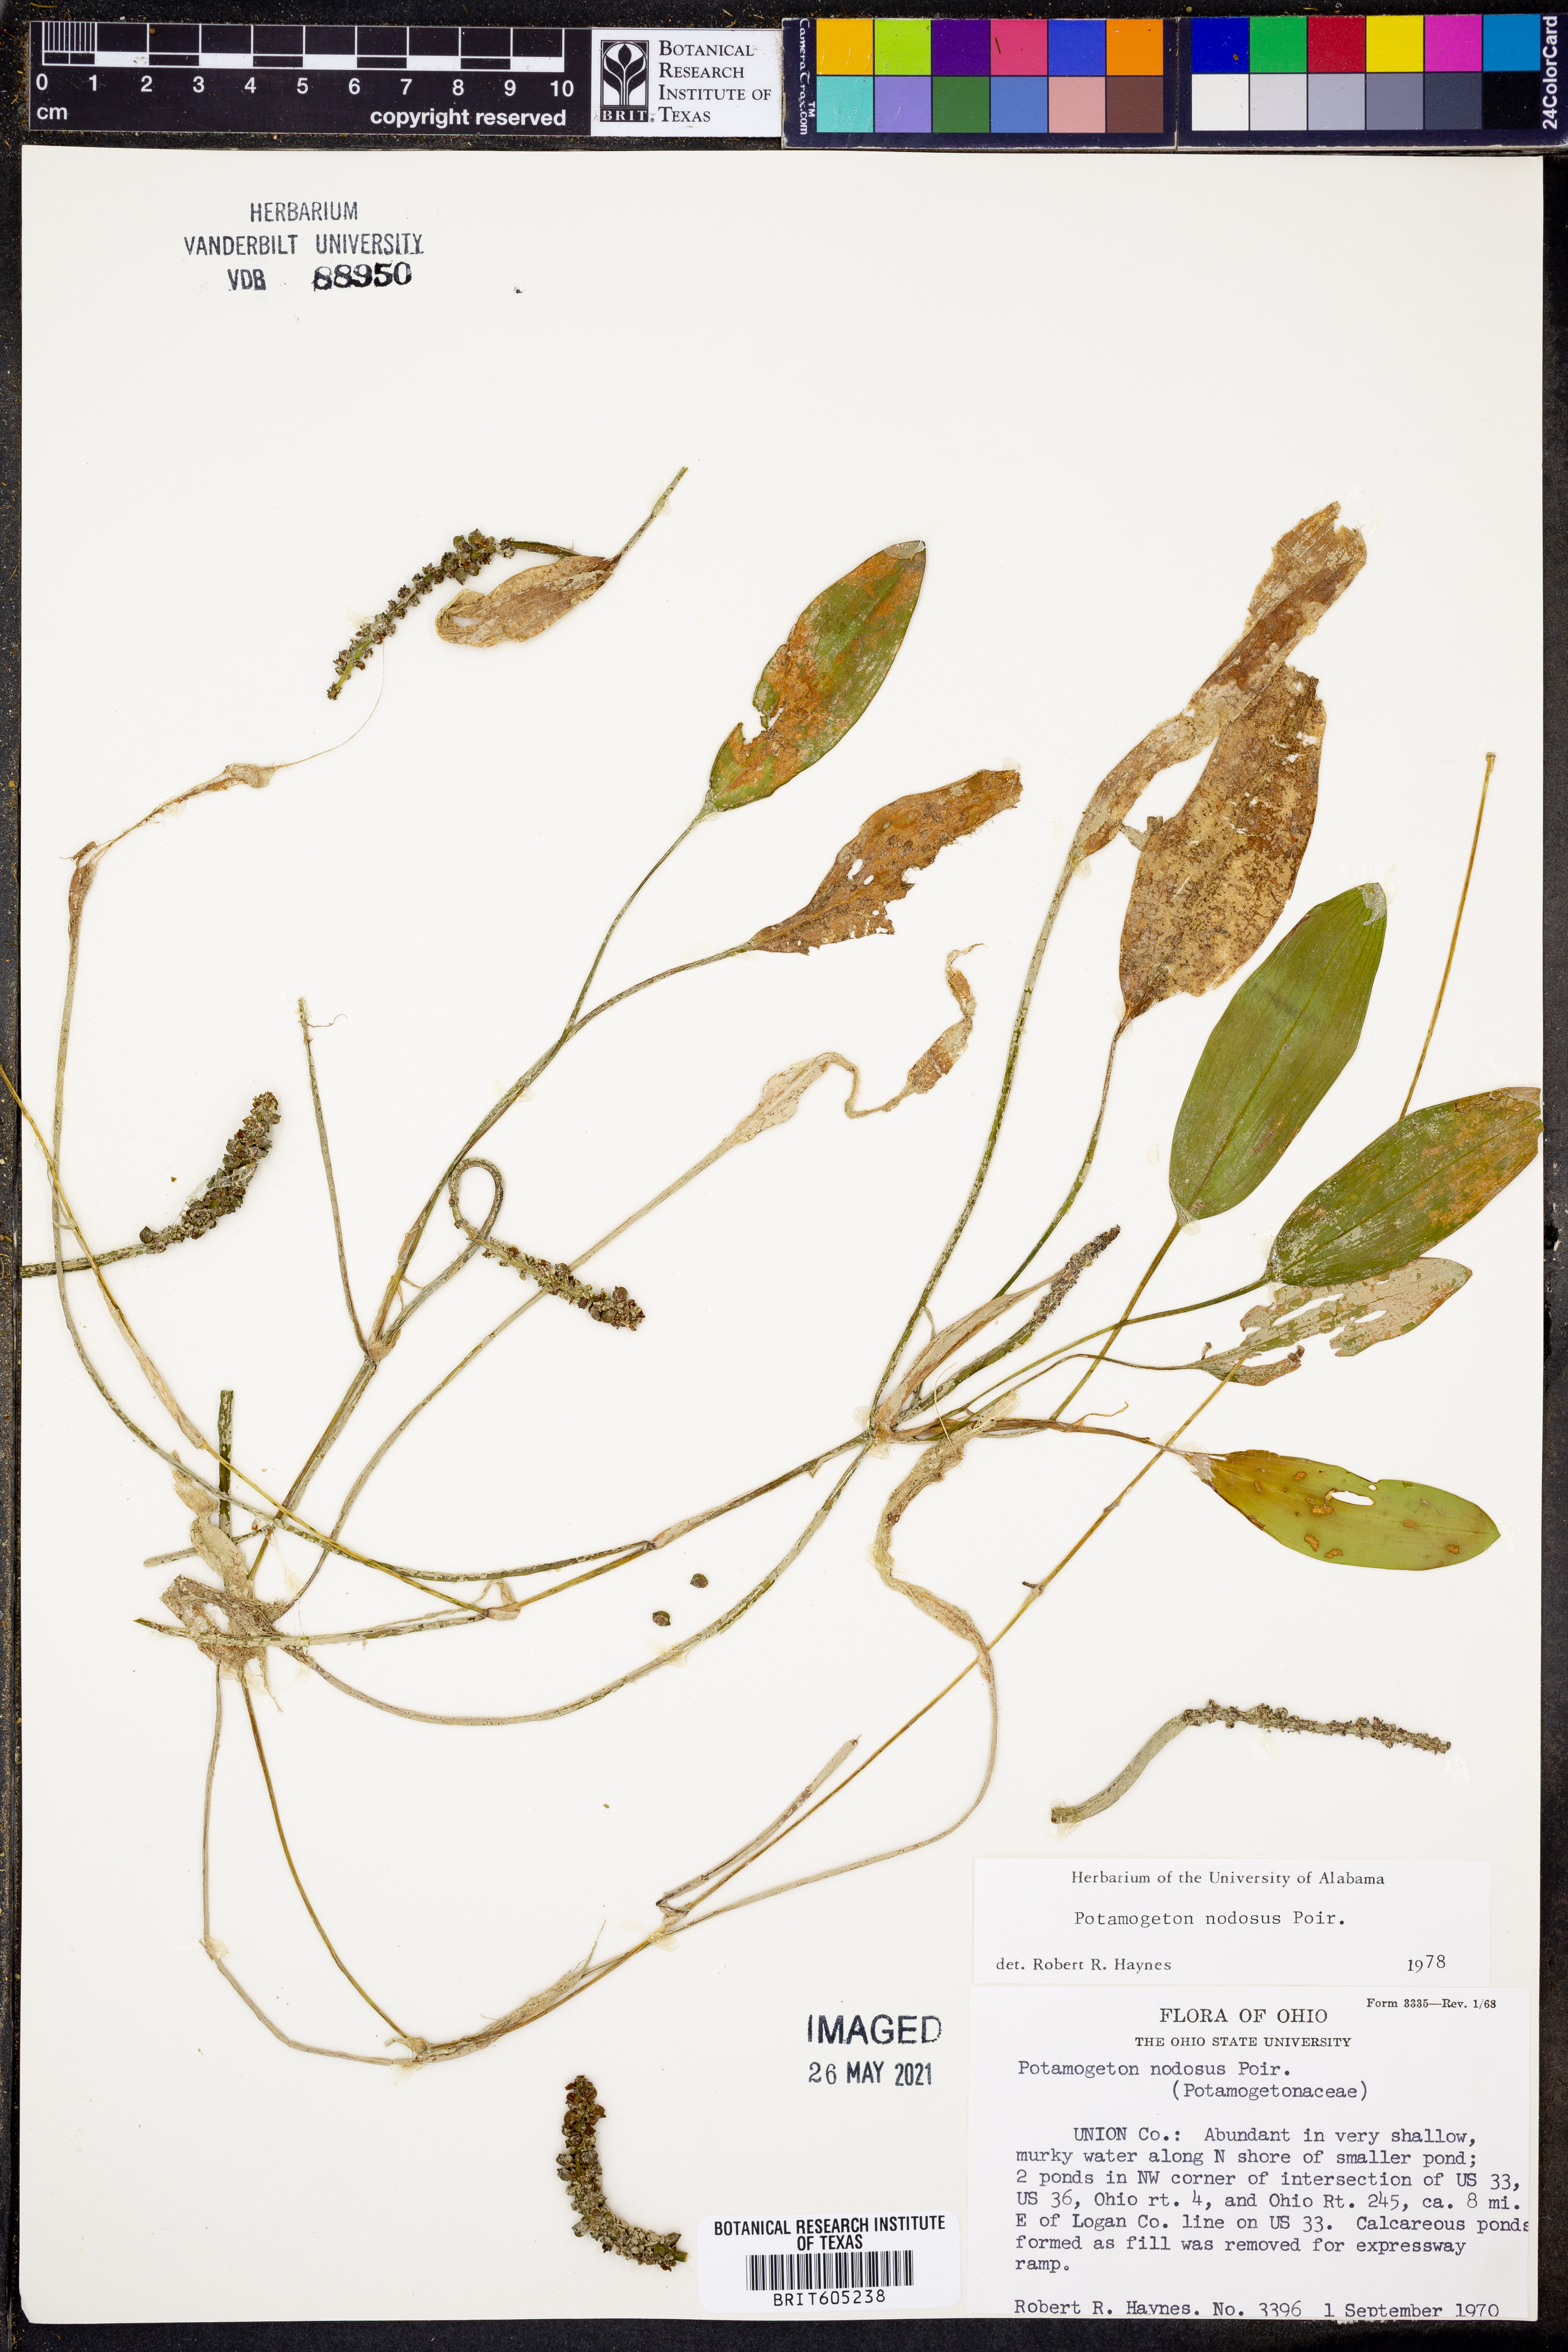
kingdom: Plantae
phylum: Tracheophyta
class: Liliopsida
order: Alismatales
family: Potamogetonaceae
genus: Potamogeton
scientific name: Potamogeton nodosus
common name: Loddon pondweed
